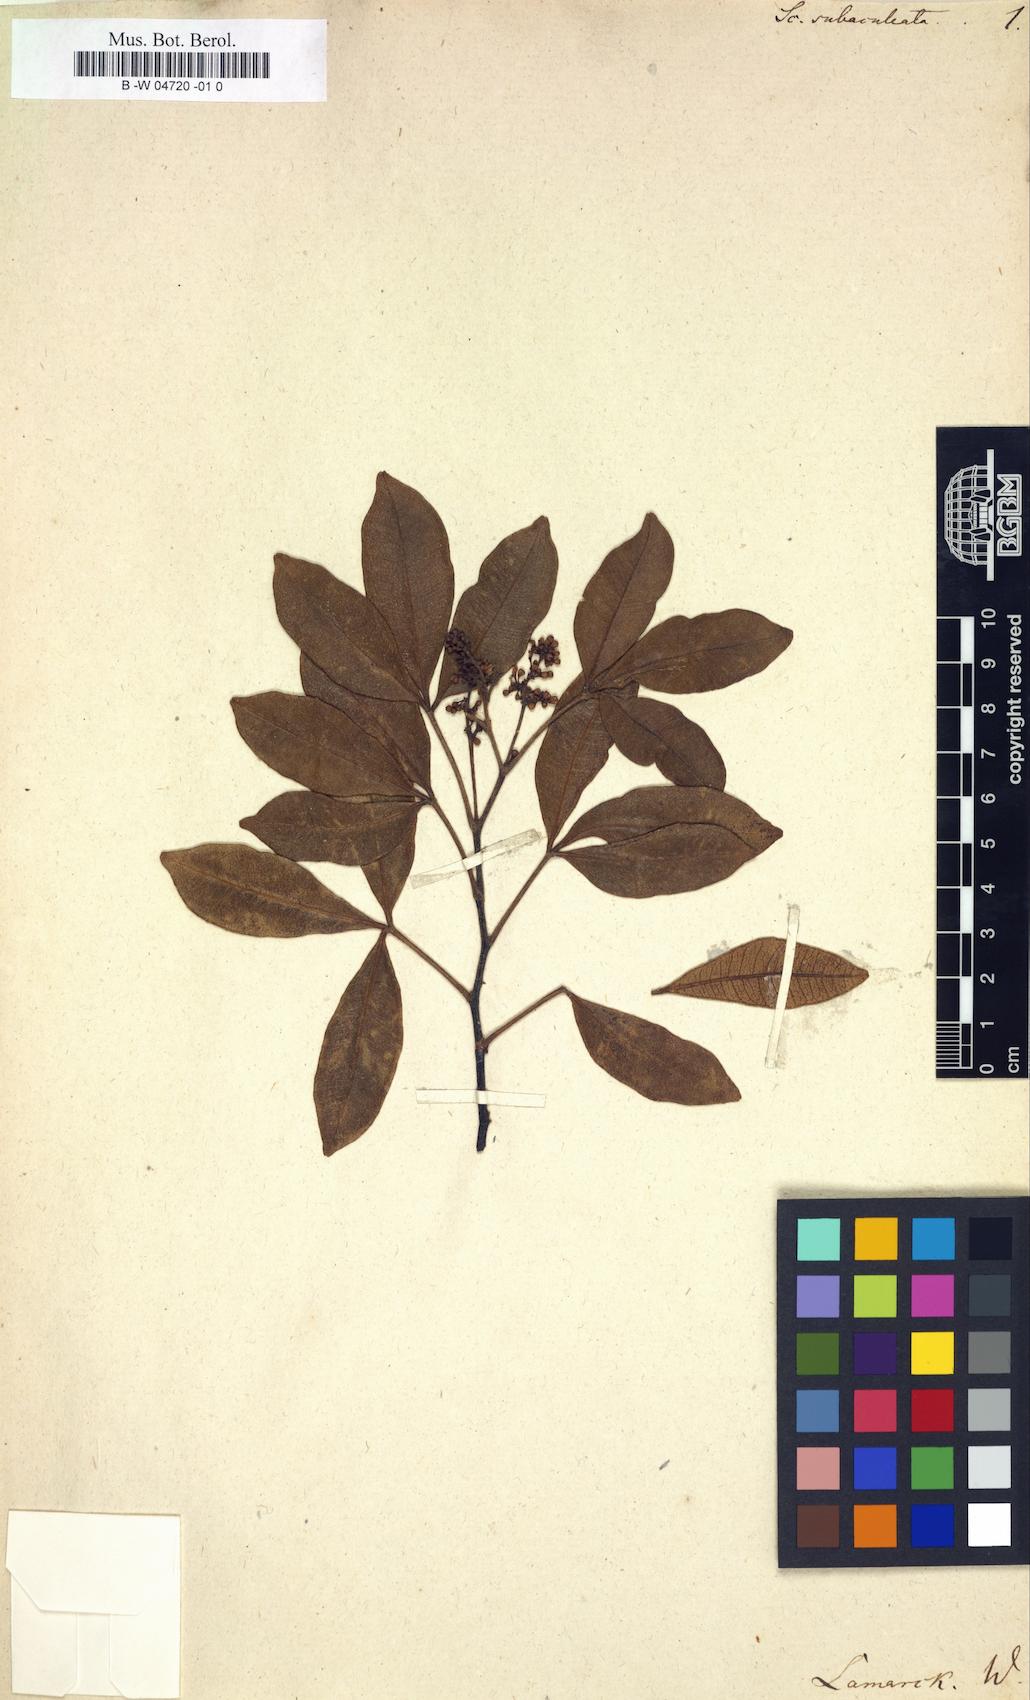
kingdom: Plantae
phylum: Tracheophyta
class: Magnoliopsida
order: Solanales
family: Solanaceae
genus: Scopolia
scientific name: Scopolia
